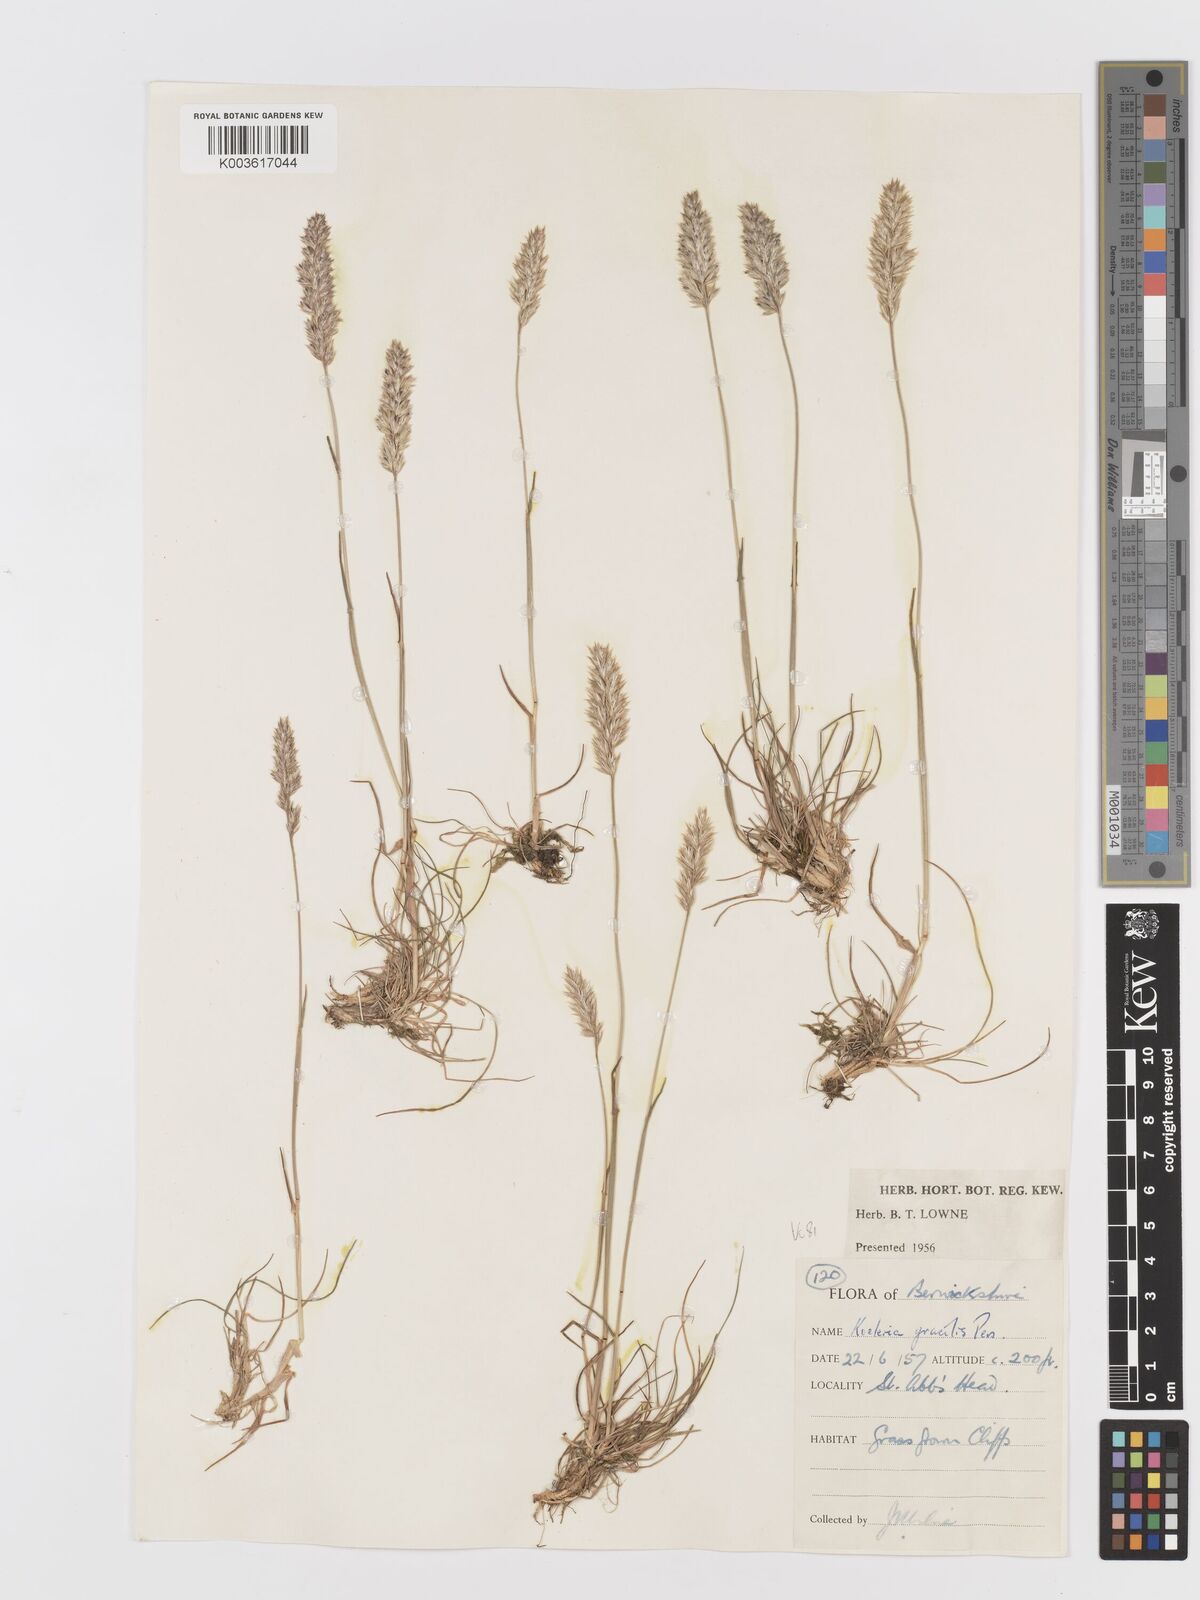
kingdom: Plantae
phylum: Tracheophyta
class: Liliopsida
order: Poales
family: Poaceae
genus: Koeleria
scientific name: Koeleria macrantha
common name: Crested hair-grass
